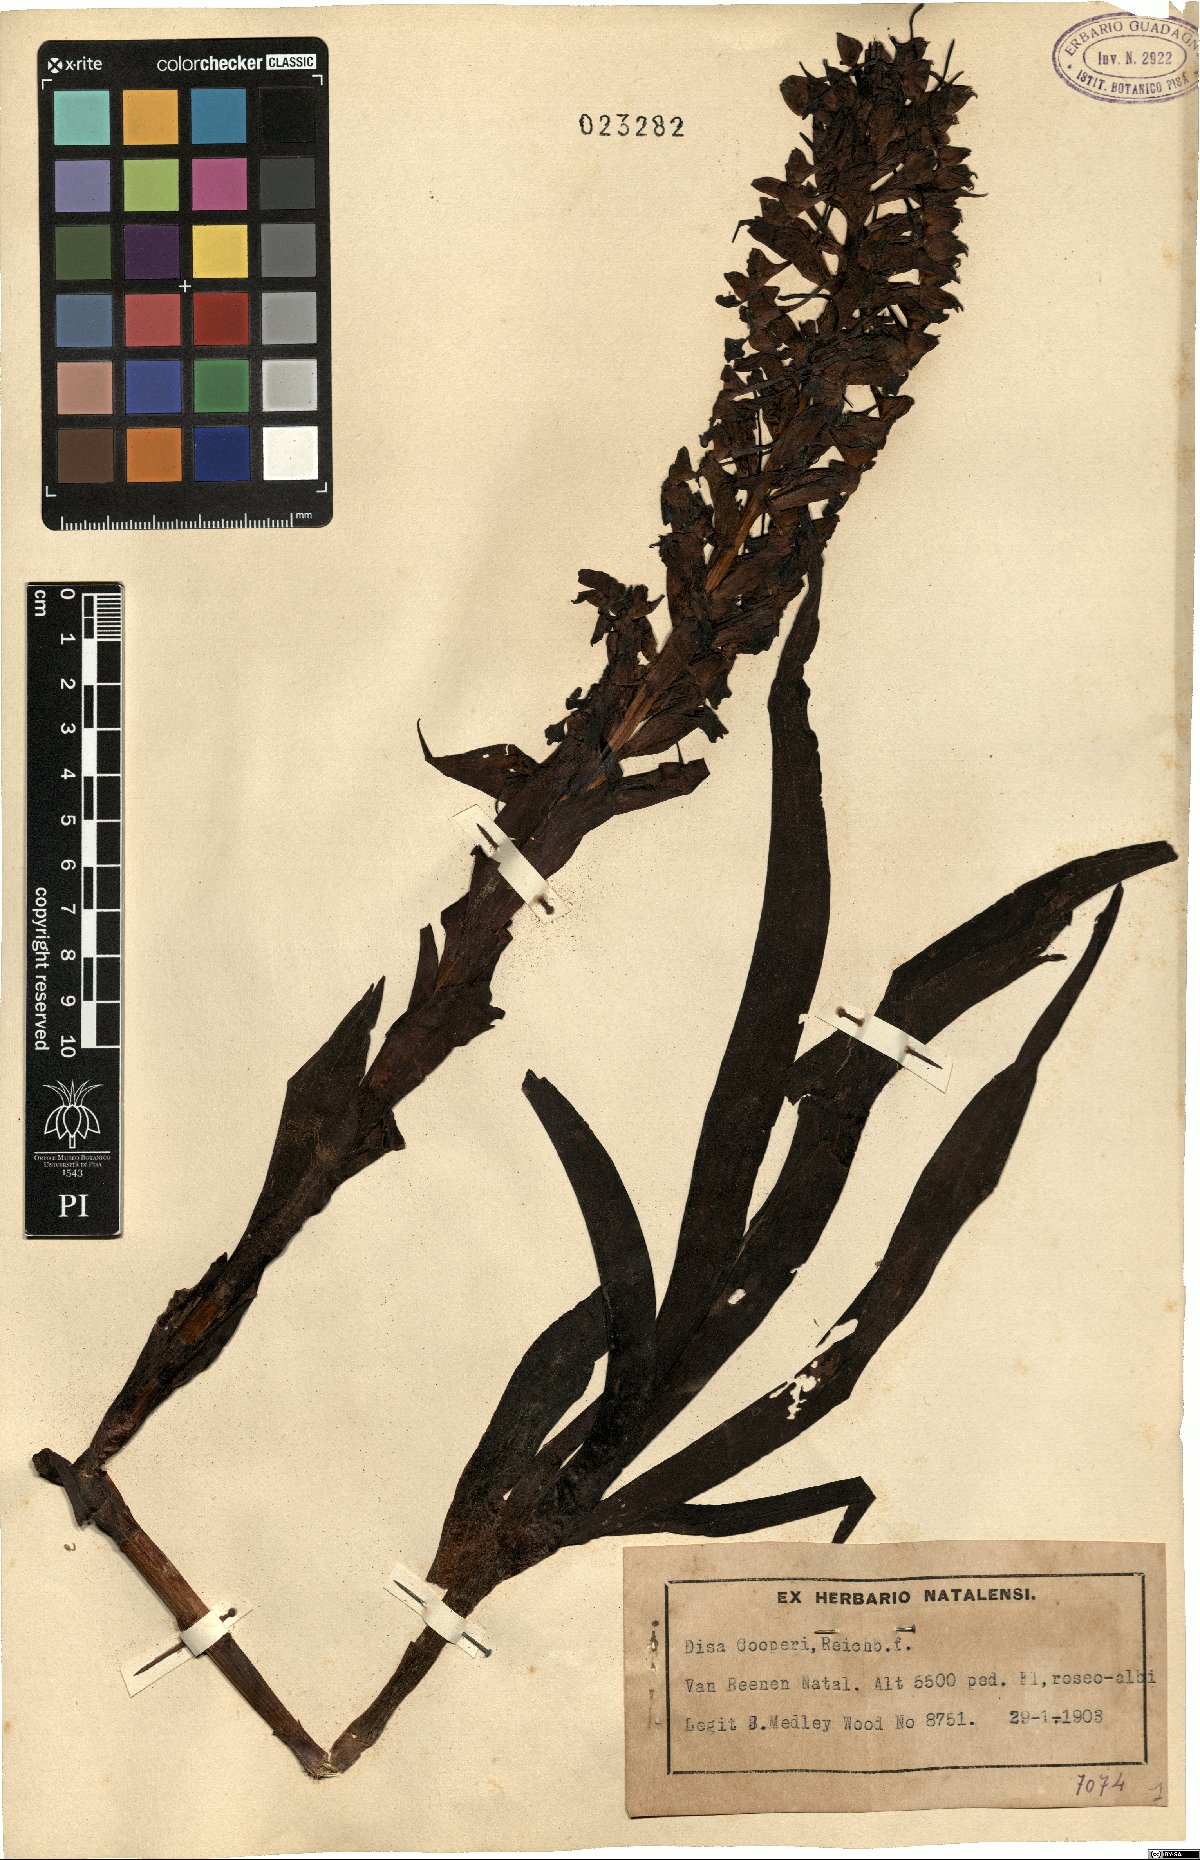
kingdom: Plantae
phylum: Tracheophyta
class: Liliopsida
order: Asparagales
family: Orchidaceae
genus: Disa
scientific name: Disa cooperi
